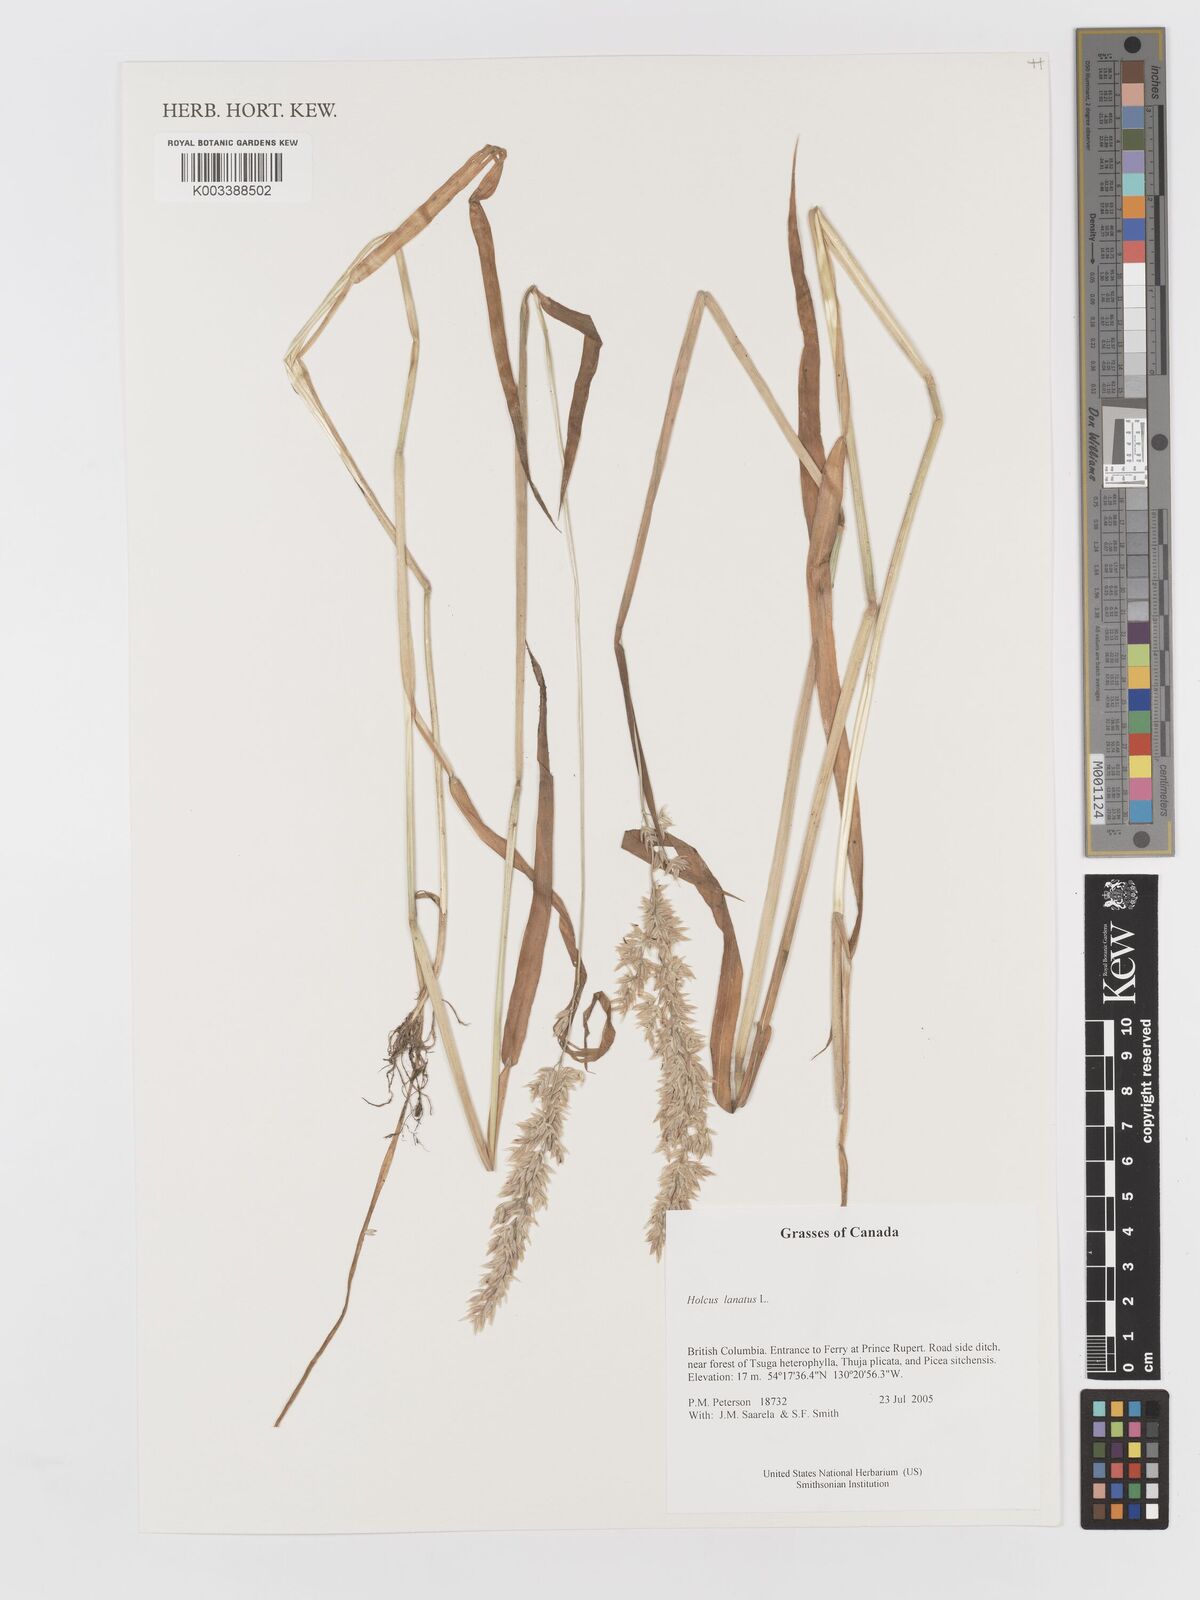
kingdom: Plantae
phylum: Tracheophyta
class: Liliopsida
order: Poales
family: Poaceae
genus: Holcus
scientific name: Holcus lanatus
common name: Yorkshire-fog
